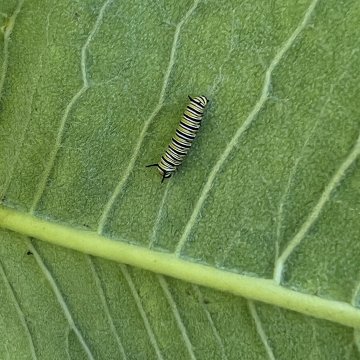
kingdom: Animalia
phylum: Arthropoda
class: Insecta
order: Lepidoptera
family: Nymphalidae
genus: Danaus
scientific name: Danaus plexippus
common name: Monarch
